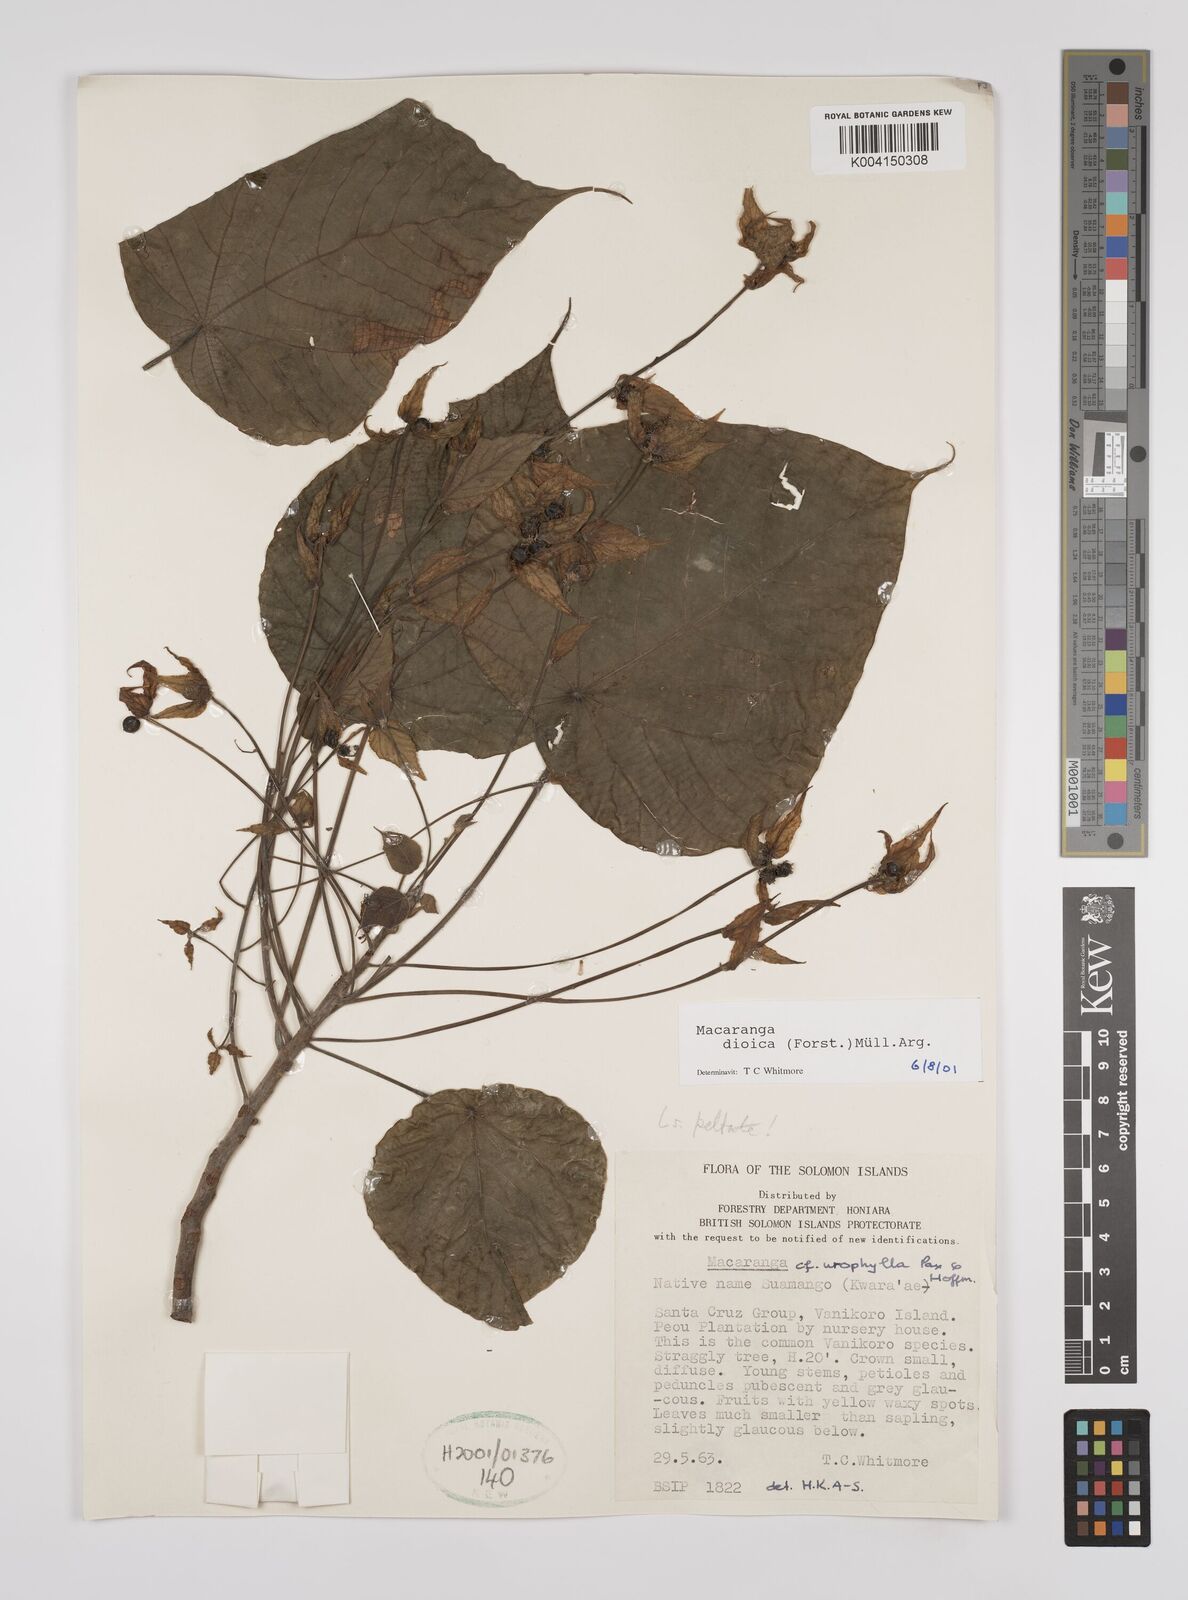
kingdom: Plantae
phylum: Tracheophyta
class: Magnoliopsida
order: Malpighiales
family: Euphorbiaceae
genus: Macaranga
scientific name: Macaranga dioica
